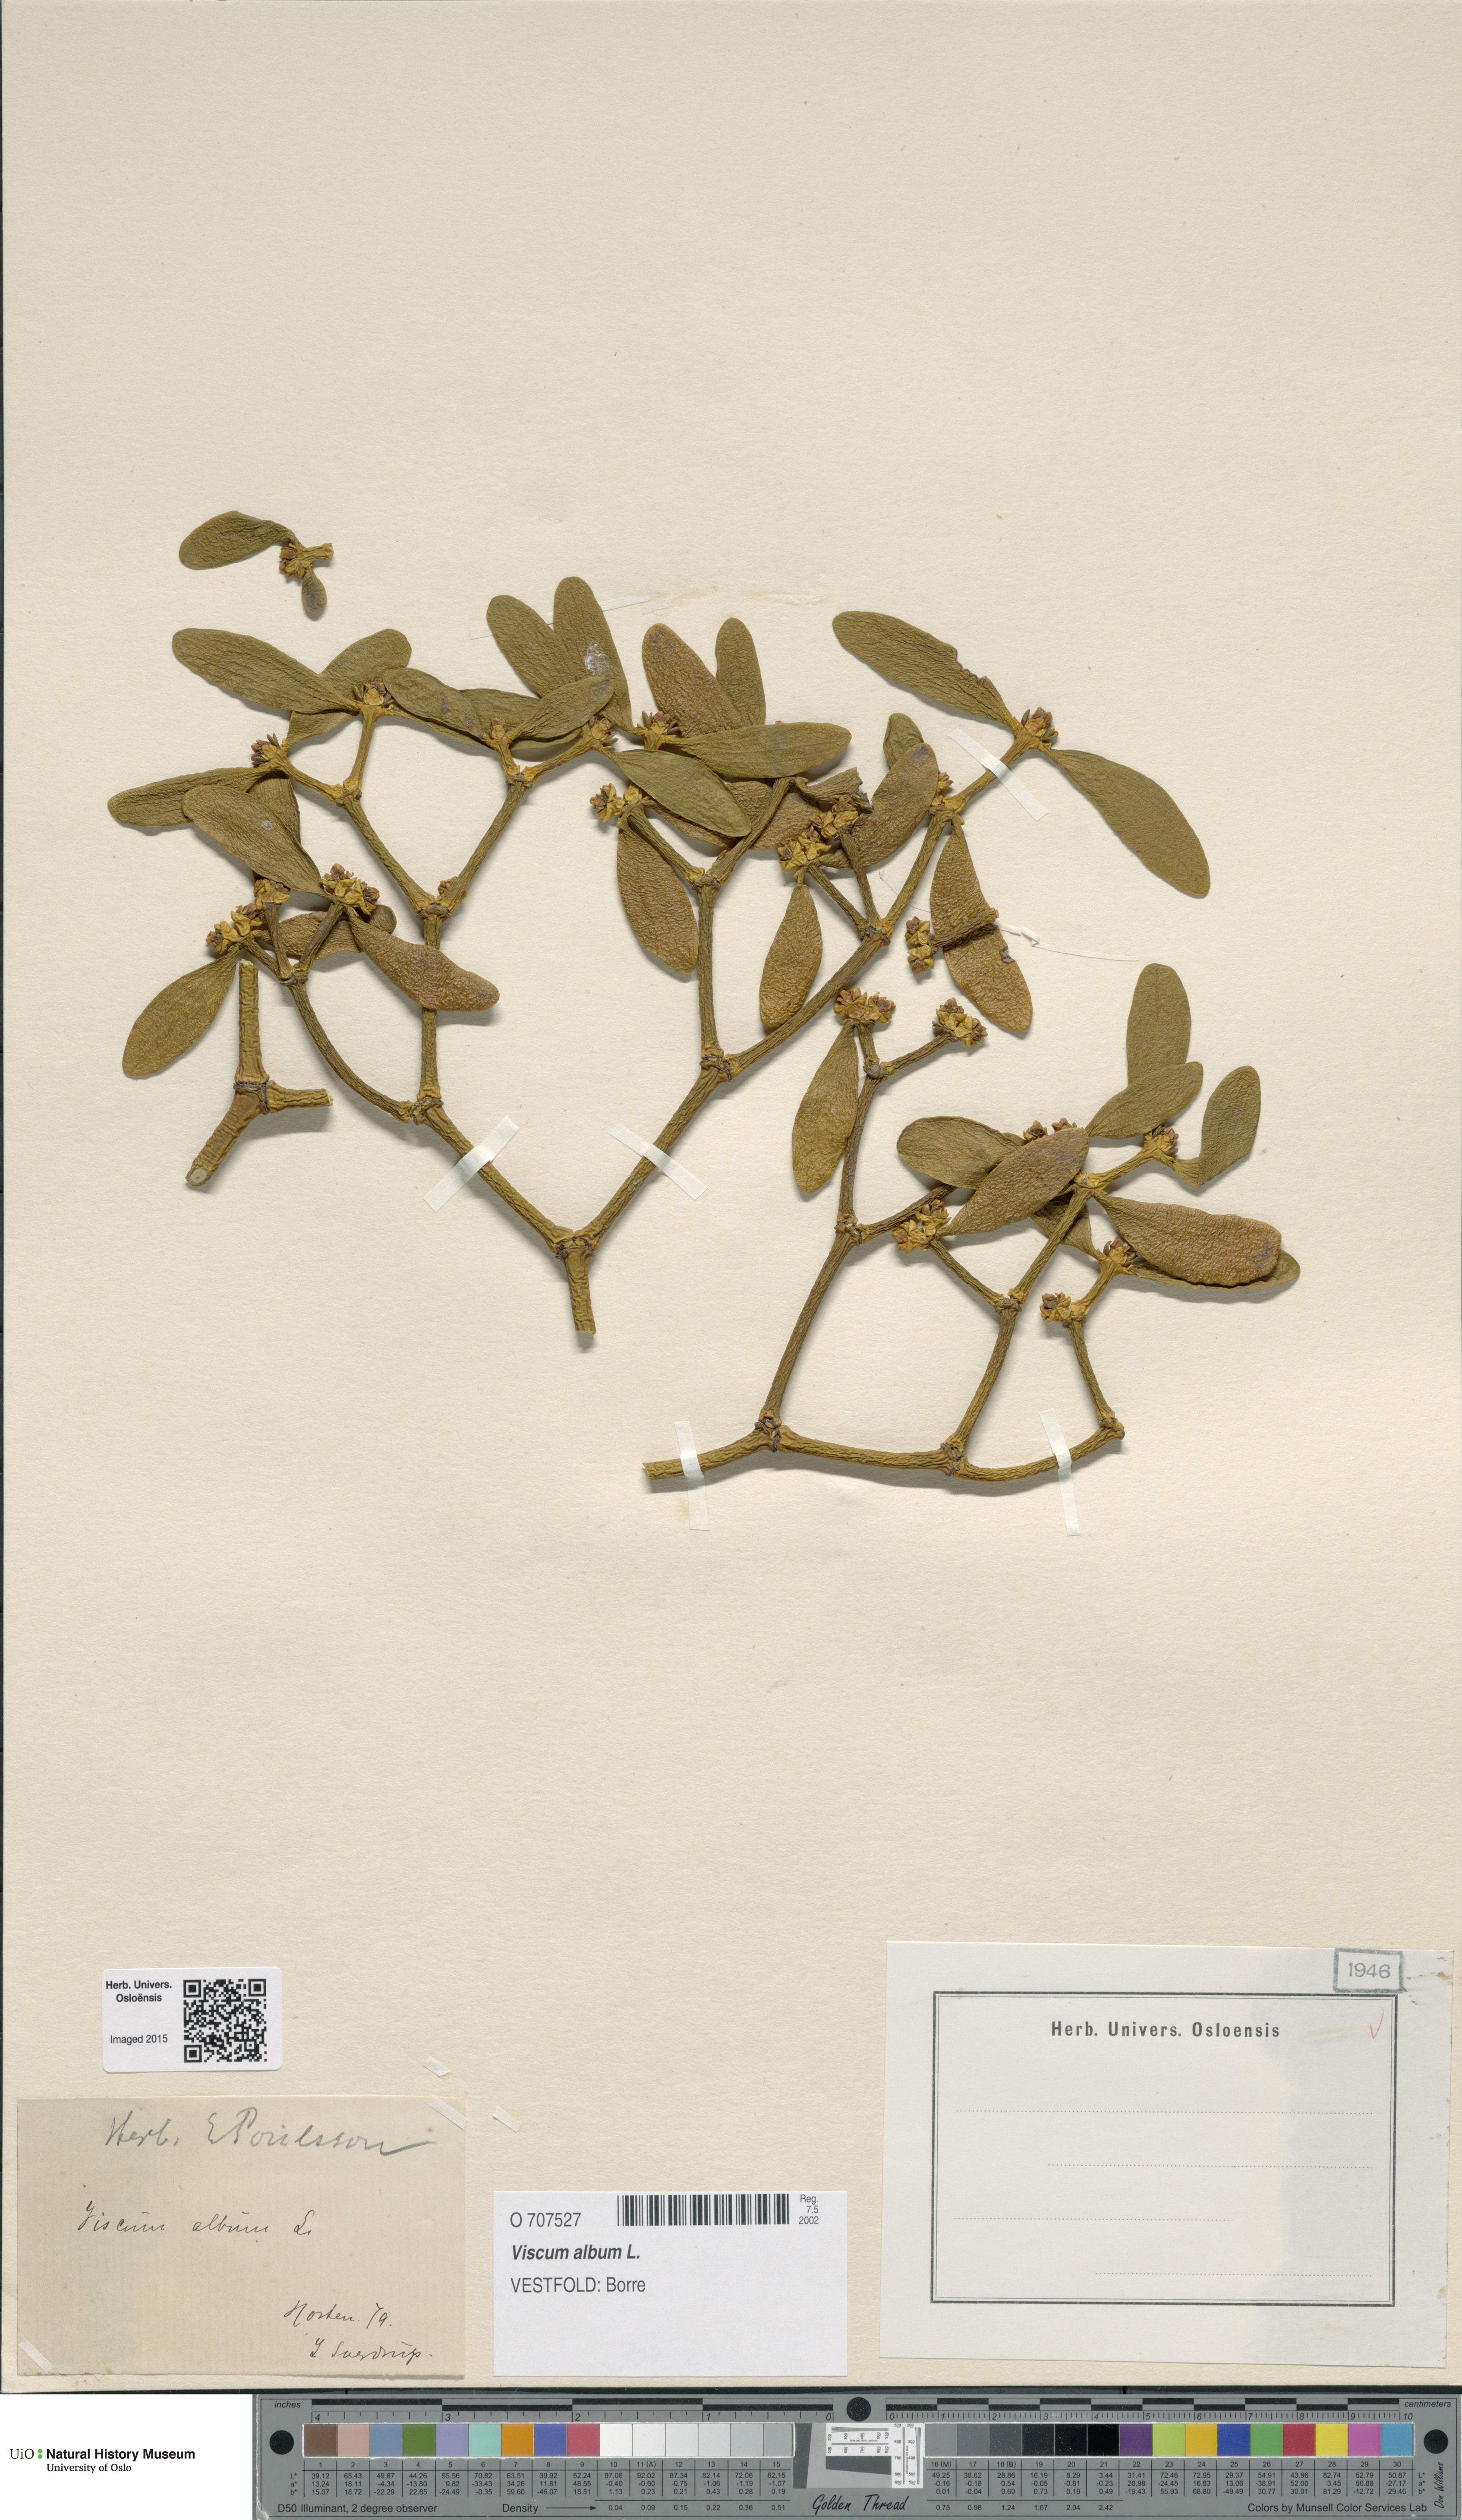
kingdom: Plantae
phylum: Tracheophyta
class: Magnoliopsida
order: Santalales
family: Viscaceae
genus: Viscum
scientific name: Viscum album
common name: Mistletoe
